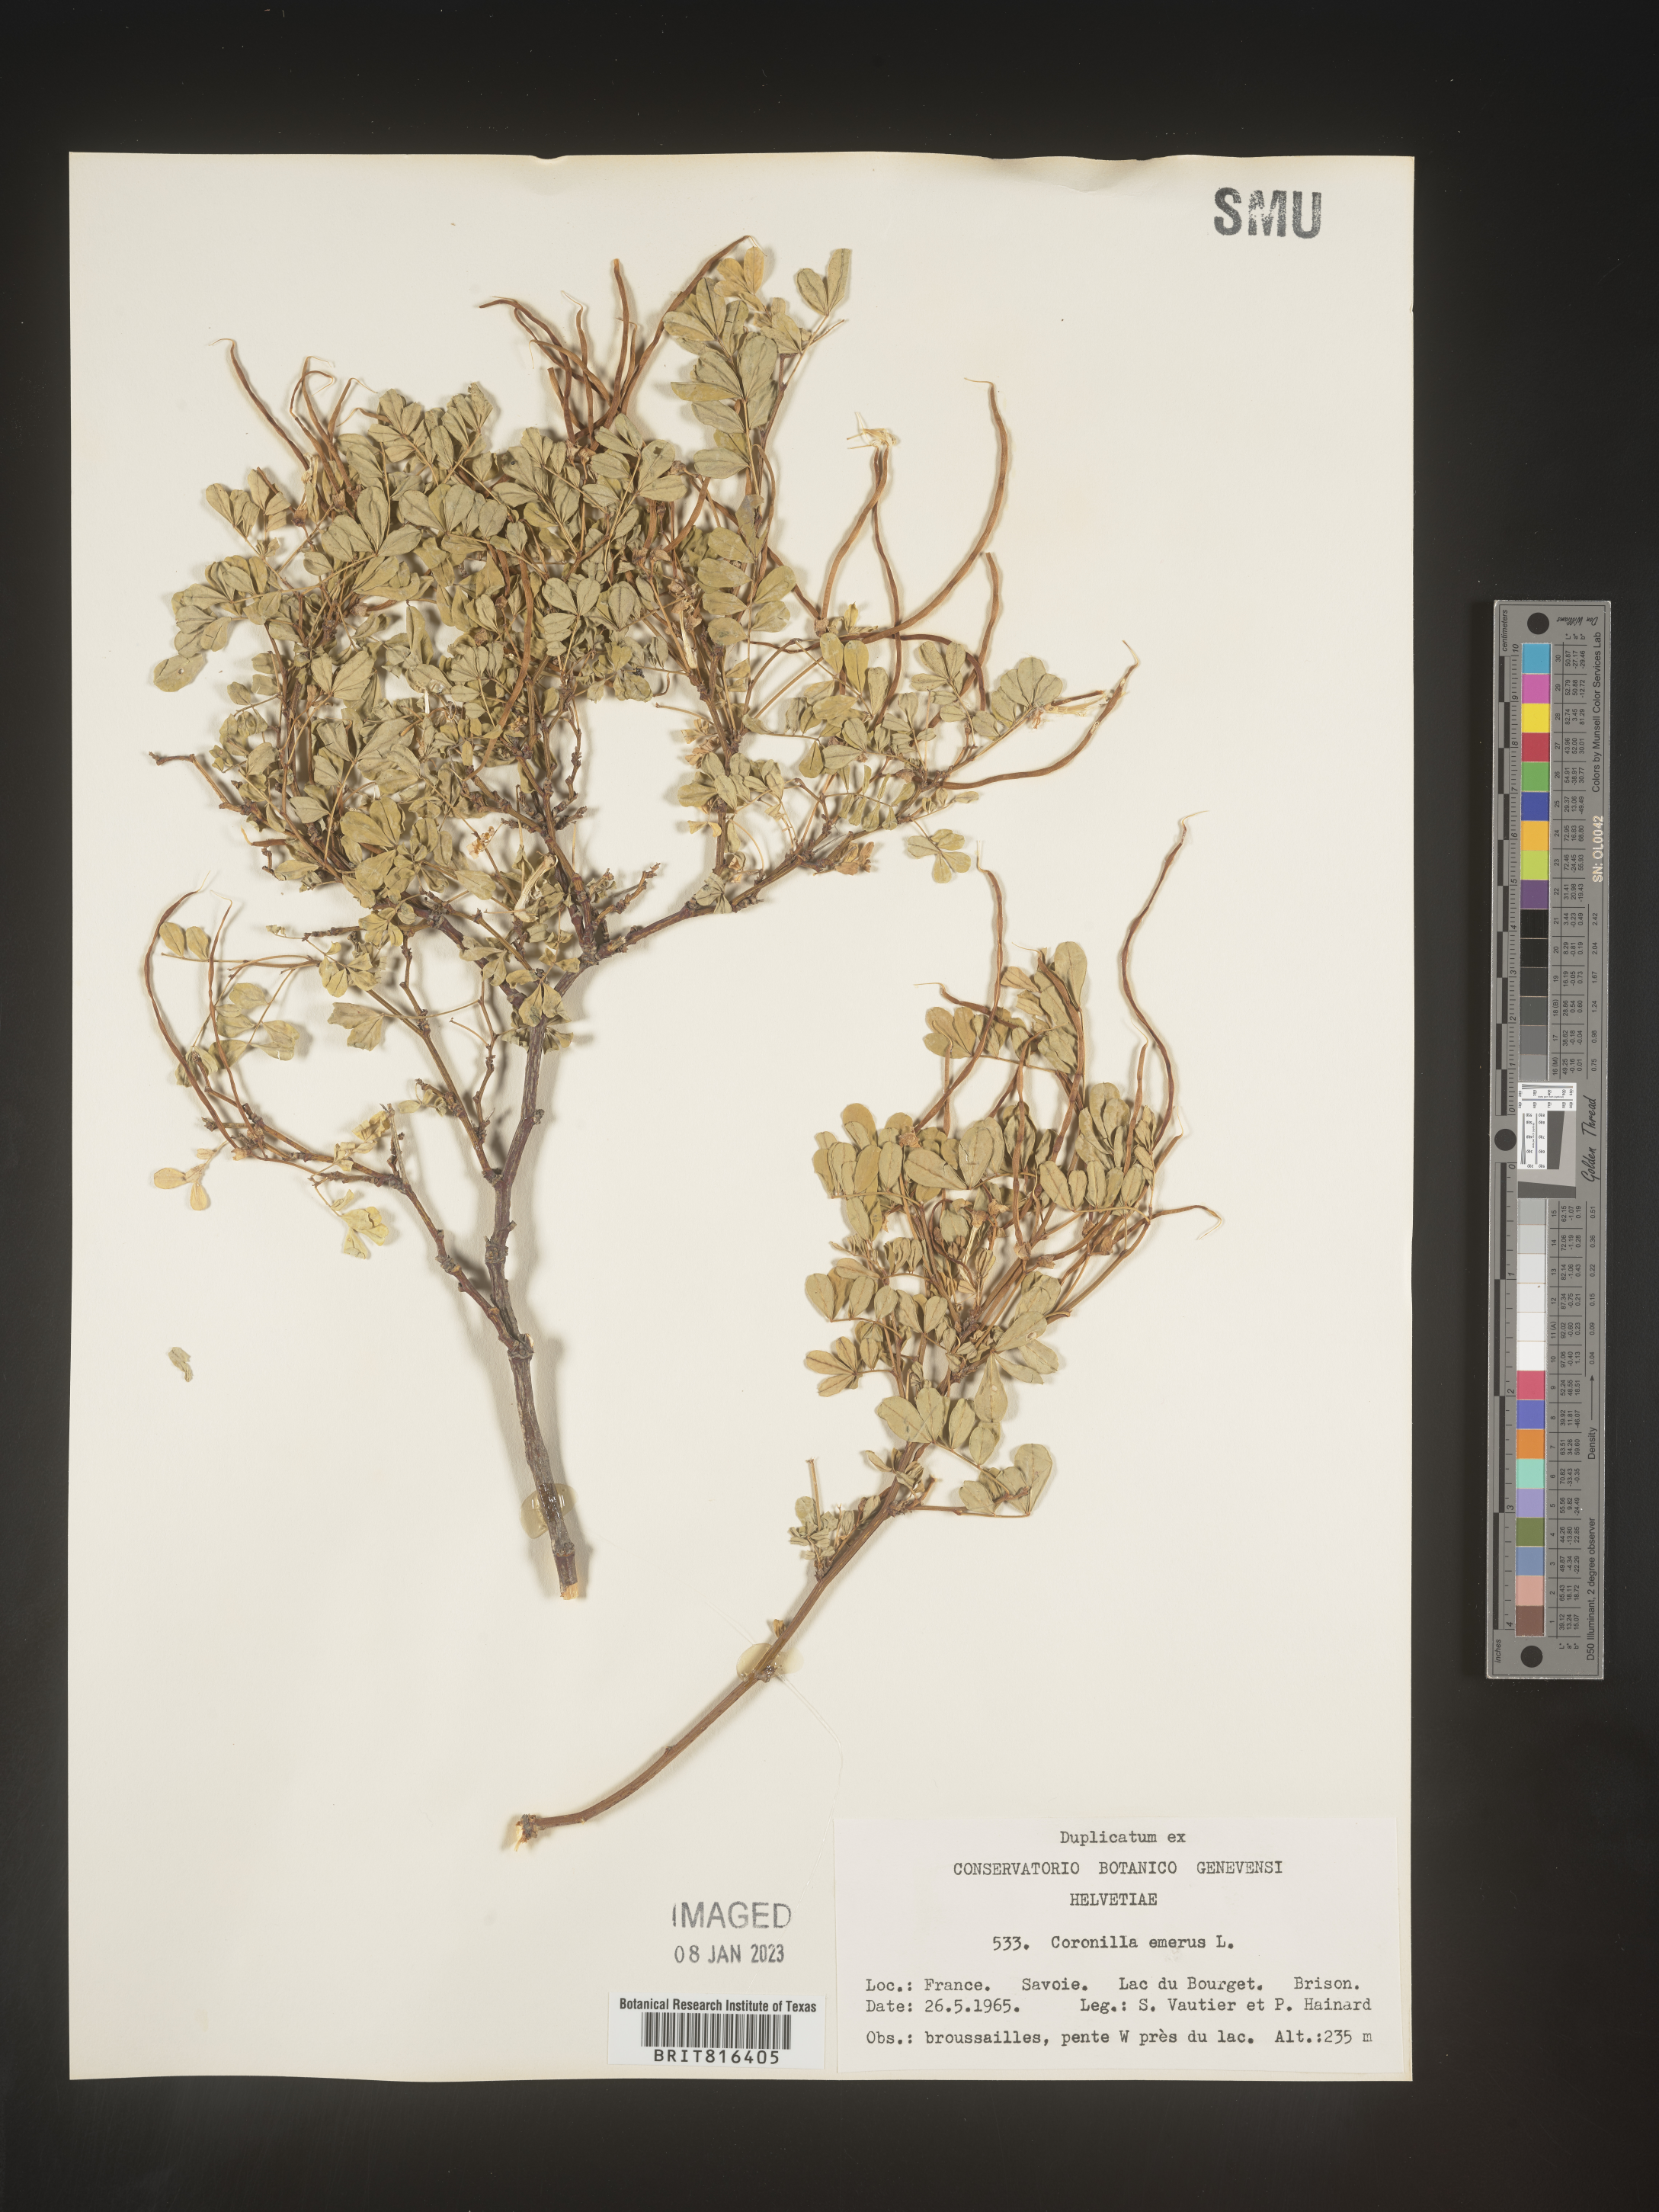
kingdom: Plantae
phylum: Tracheophyta
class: Magnoliopsida
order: Fabales
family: Fabaceae
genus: Coronilla
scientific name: Coronilla
